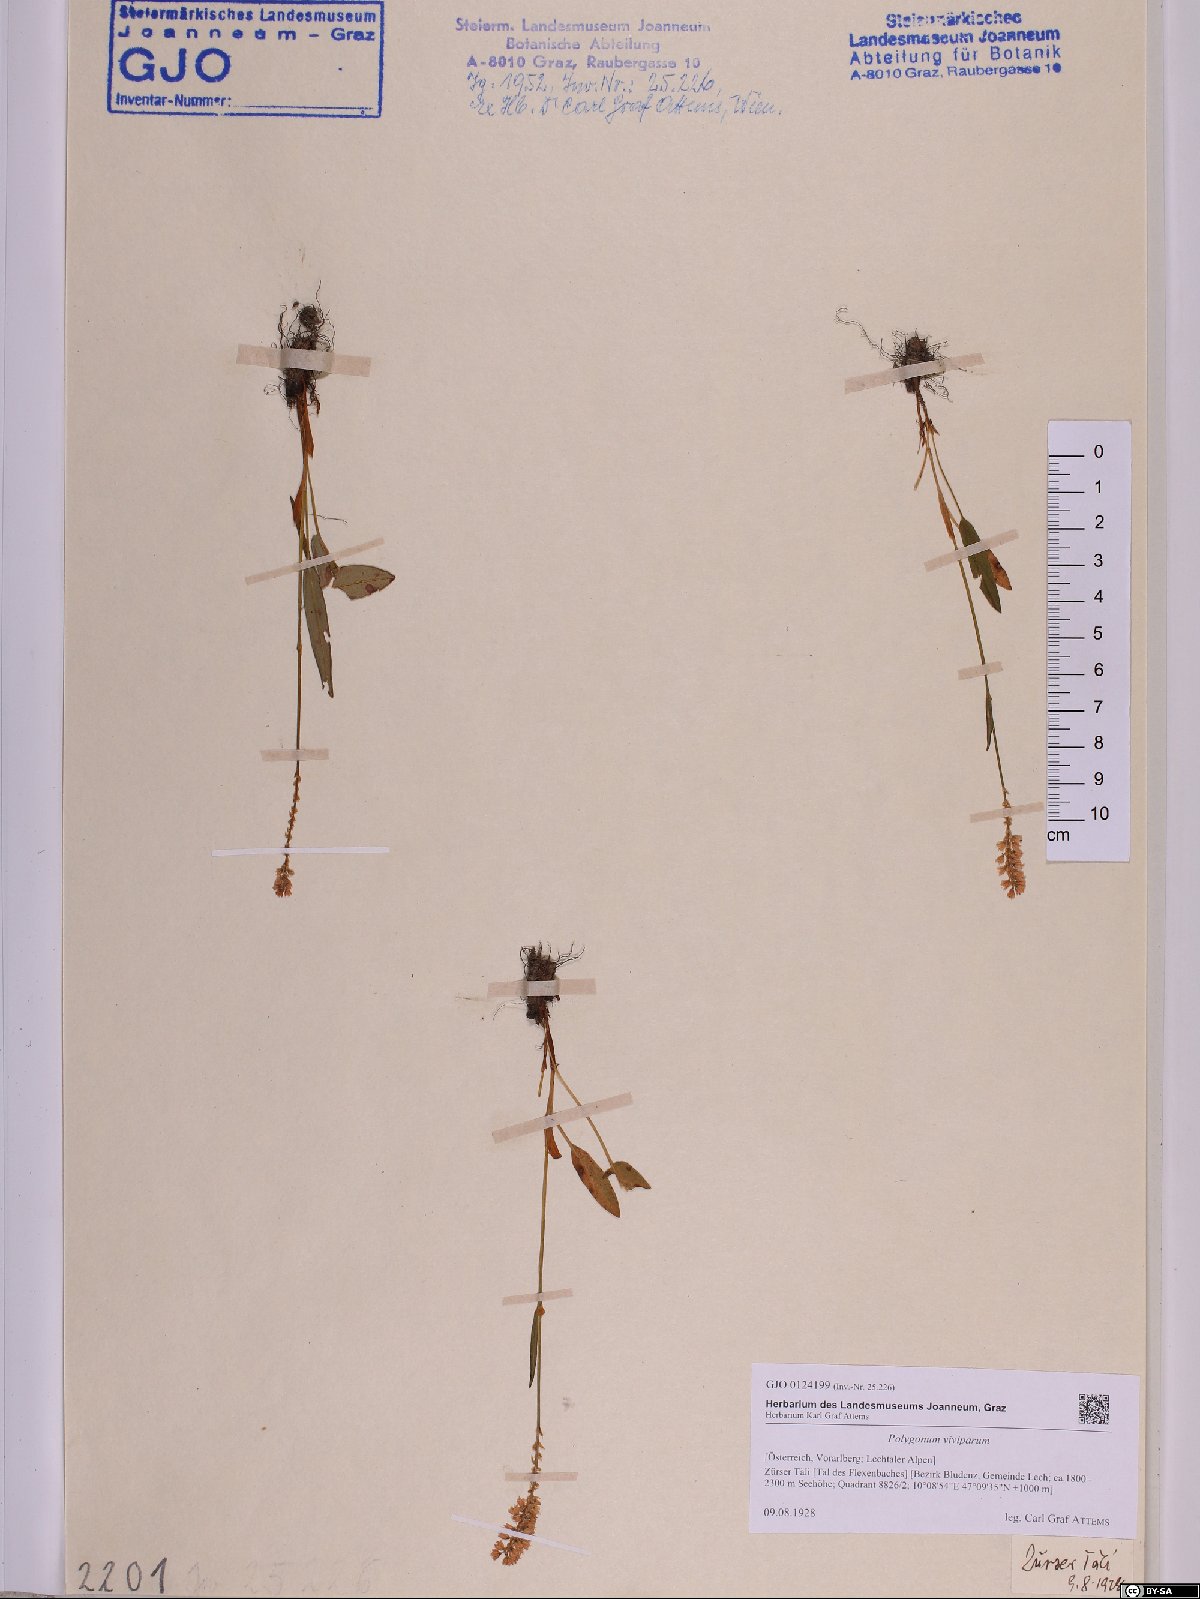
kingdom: Plantae
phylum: Tracheophyta
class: Magnoliopsida
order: Caryophyllales
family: Polygonaceae
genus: Bistorta
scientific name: Bistorta vivipara
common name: Alpine bistort
